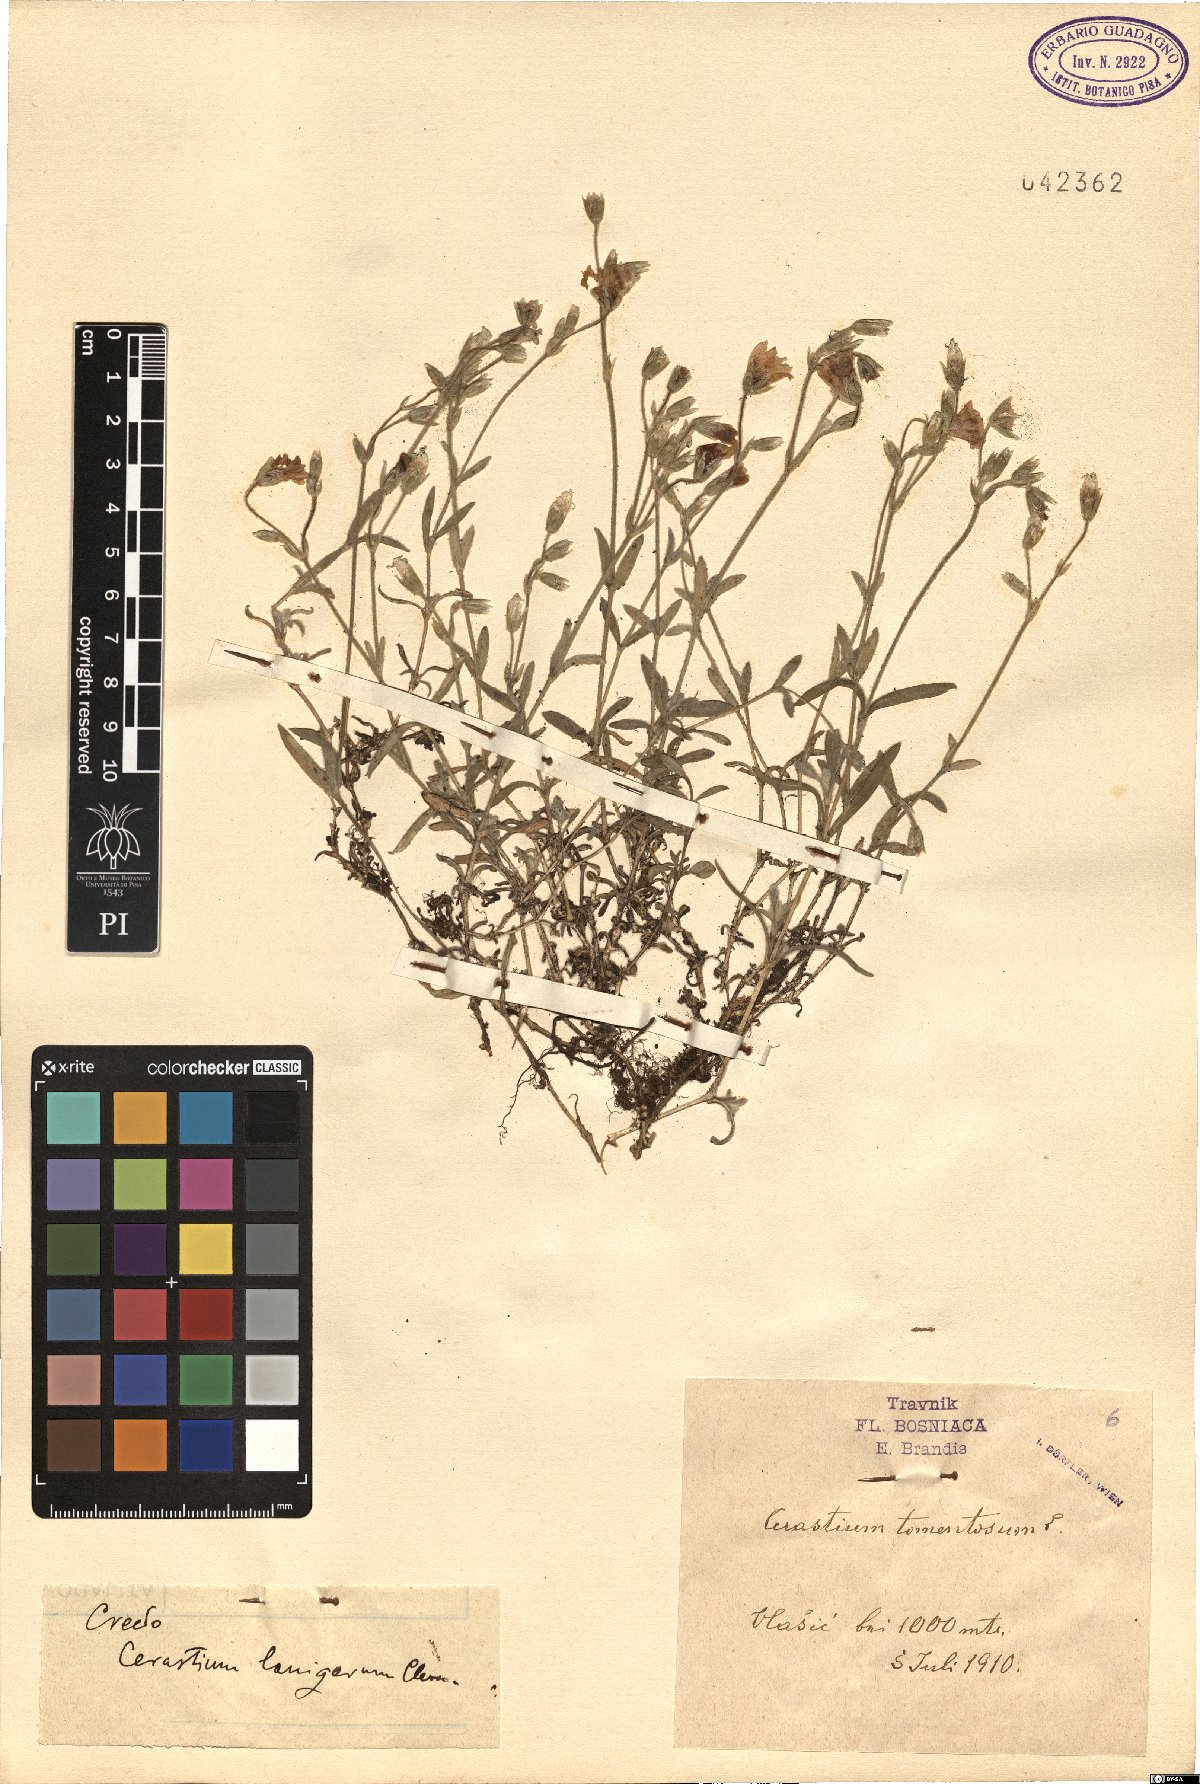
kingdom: Plantae
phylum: Tracheophyta
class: Magnoliopsida
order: Caryophyllales
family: Caryophyllaceae
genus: Cerastium
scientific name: Cerastium decalvans
